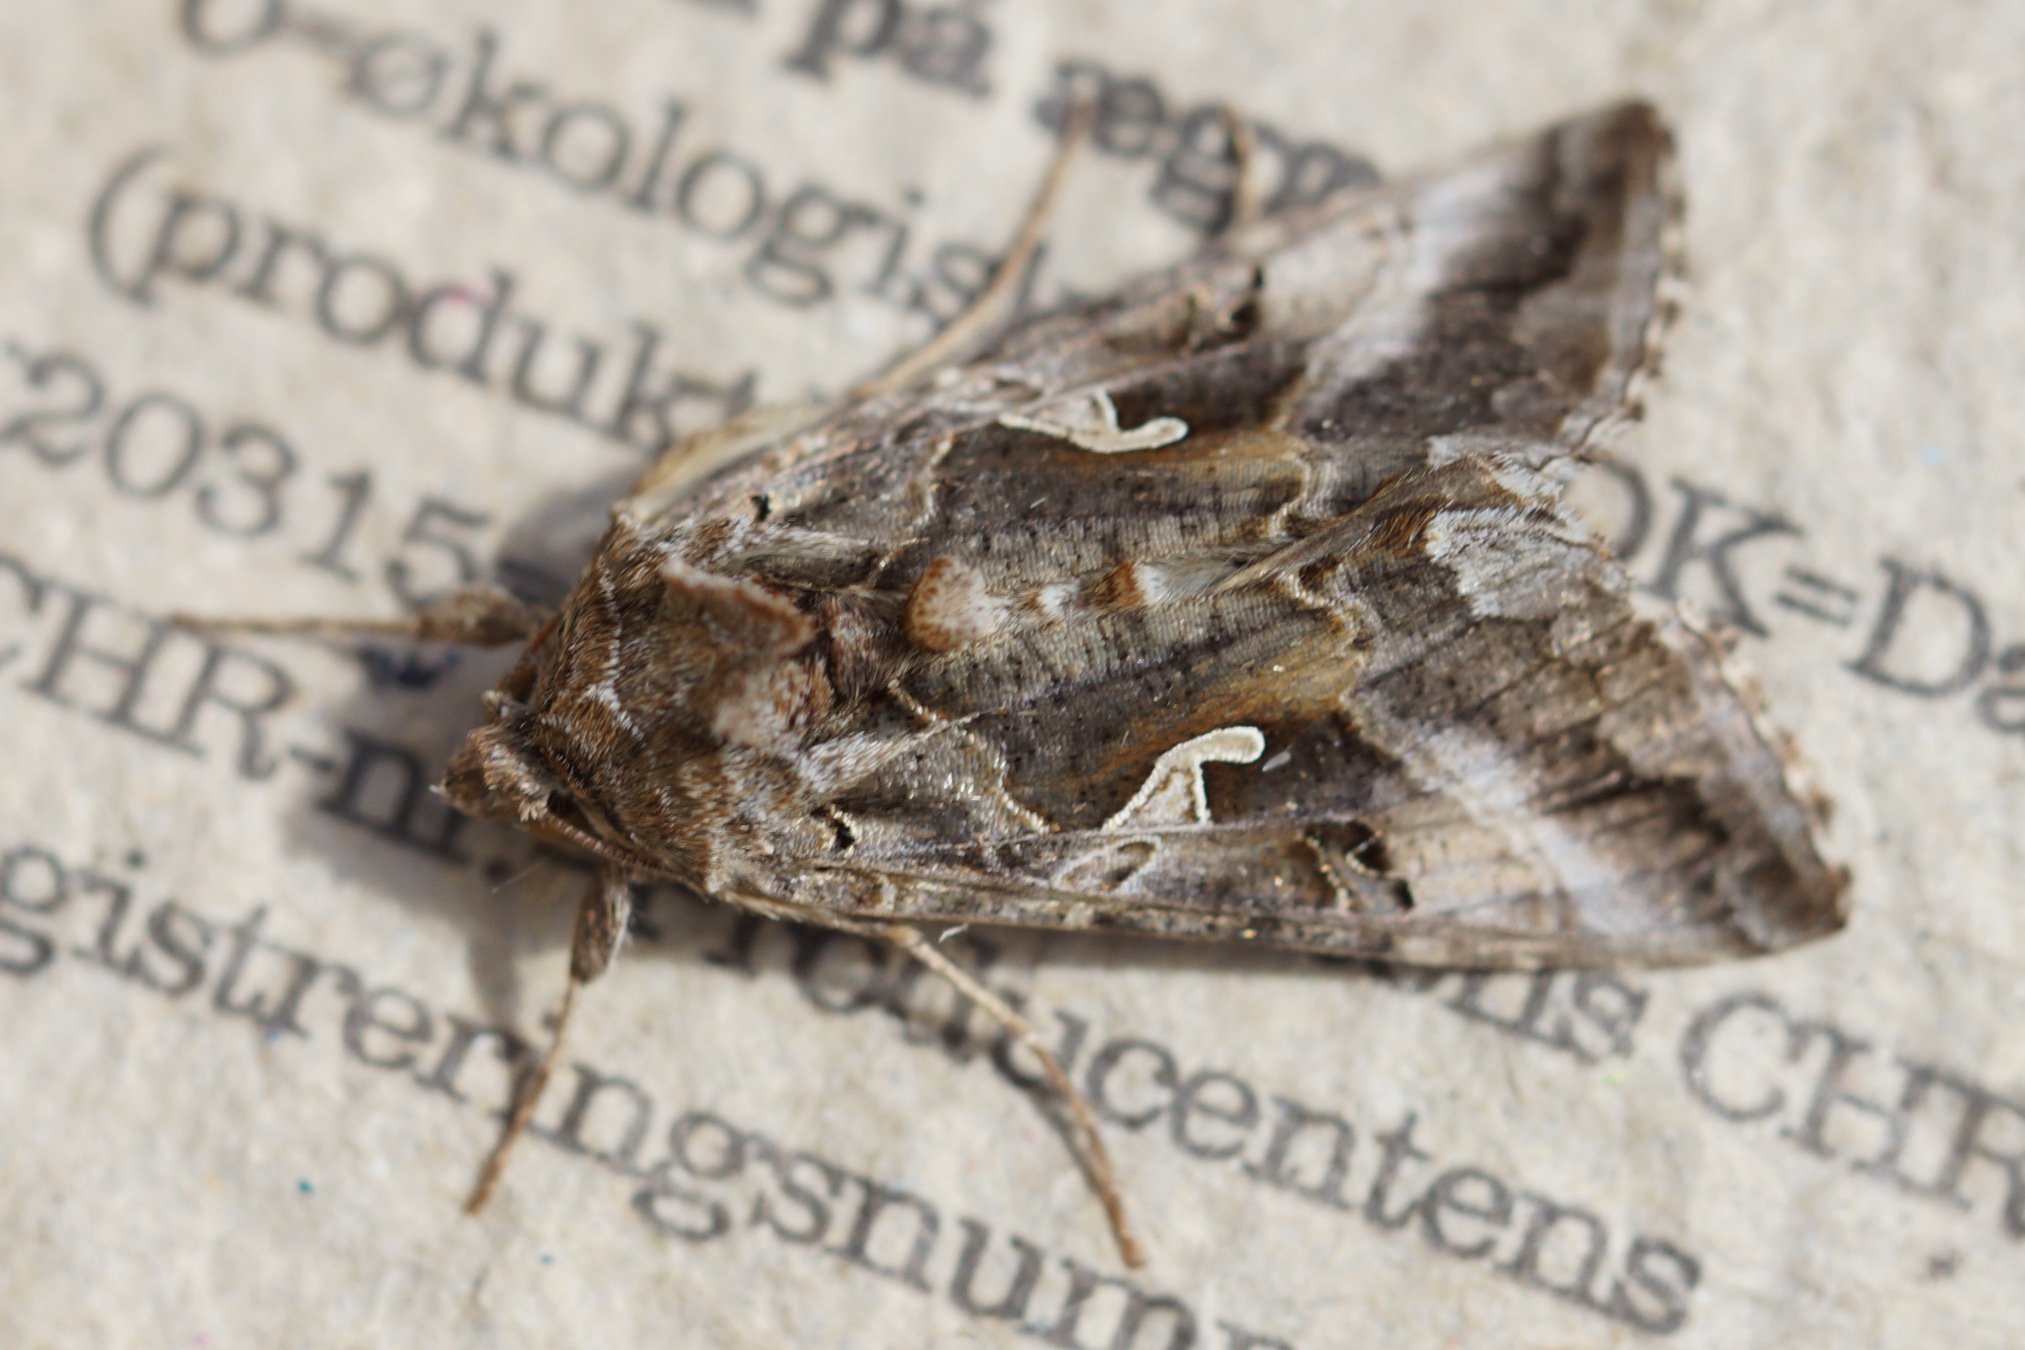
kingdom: Animalia
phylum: Arthropoda
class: Insecta
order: Lepidoptera
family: Noctuidae
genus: Autographa
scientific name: Autographa gamma
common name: Gammaugle
